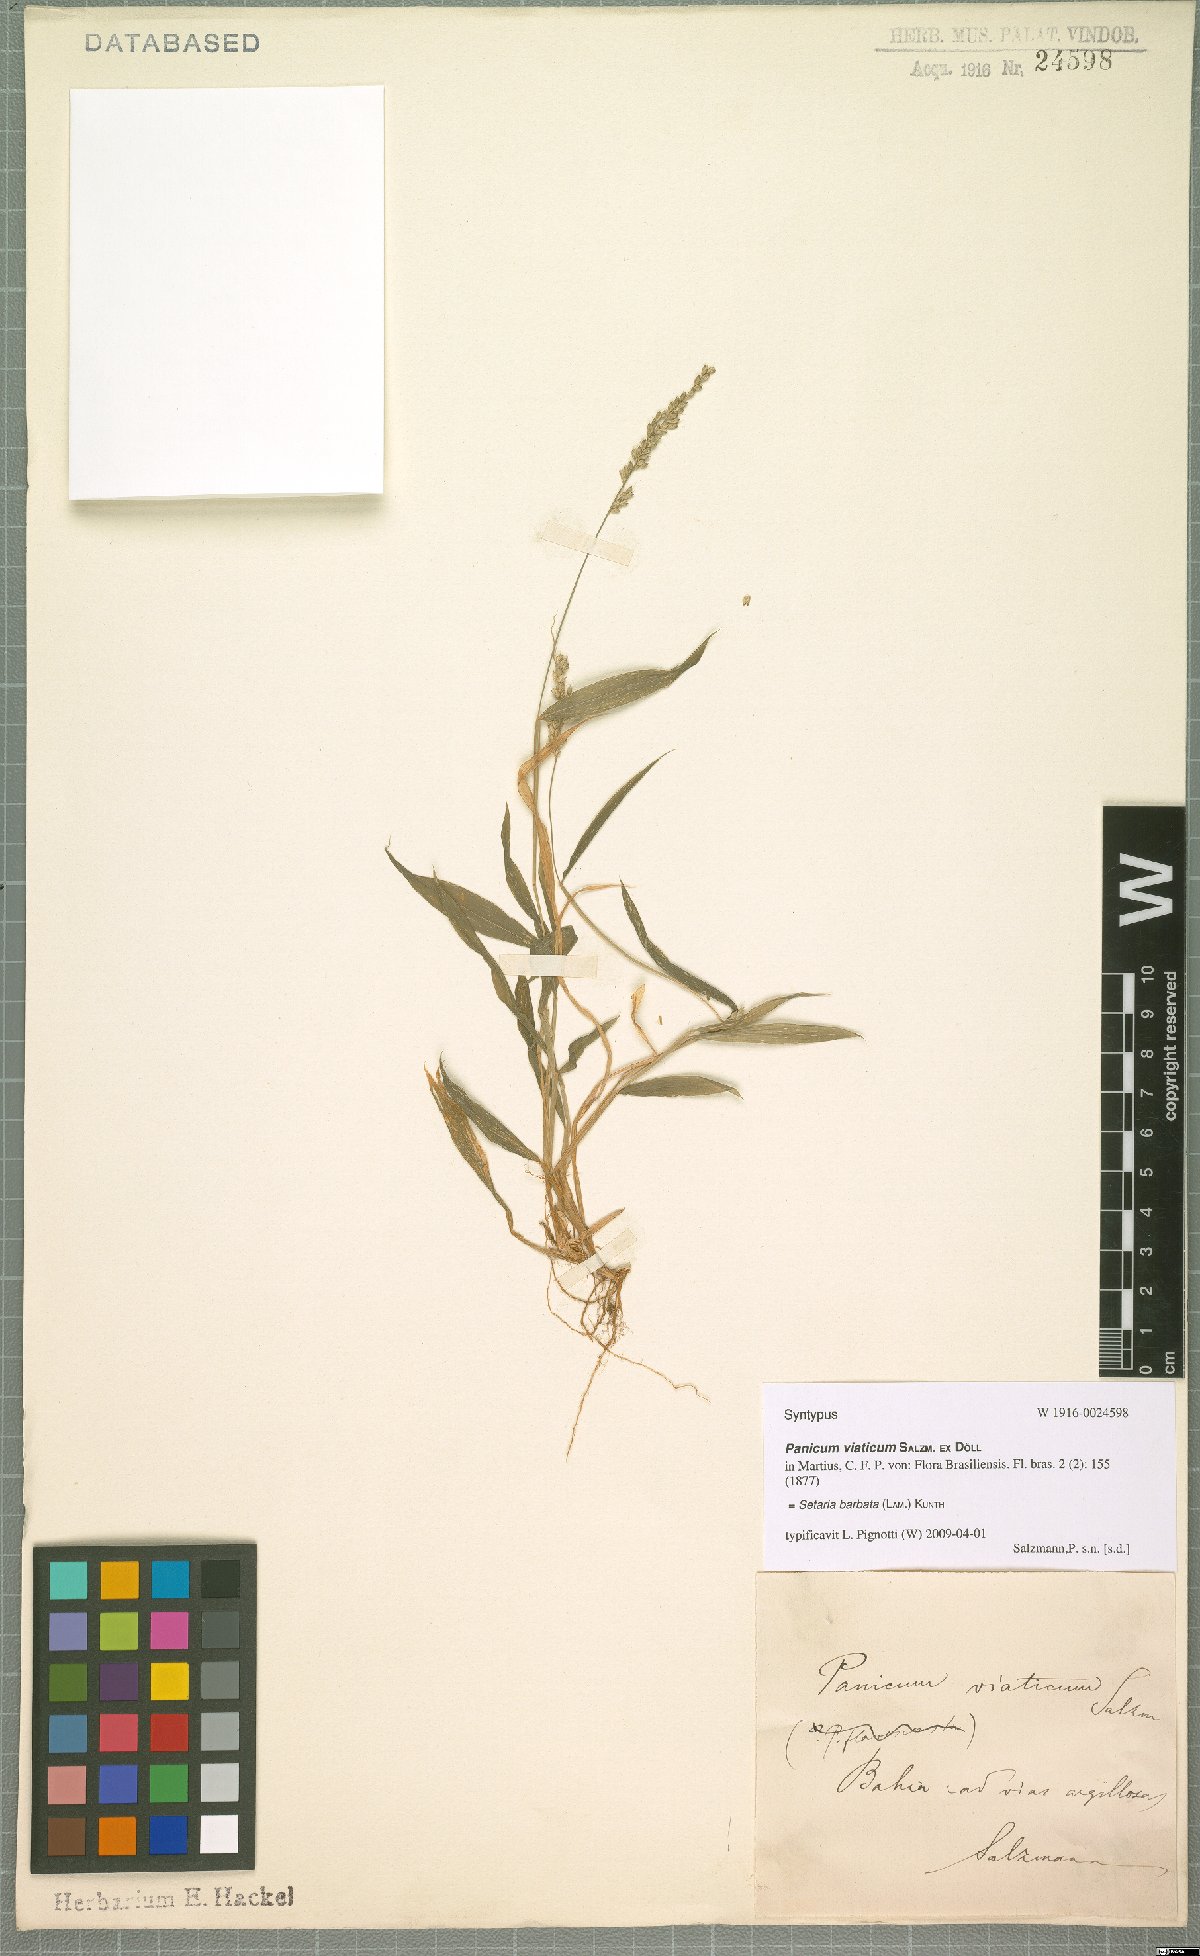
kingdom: Plantae
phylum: Tracheophyta
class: Liliopsida
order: Poales
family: Poaceae
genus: Setaria
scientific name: Setaria barbata
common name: East indian bristlegrass
